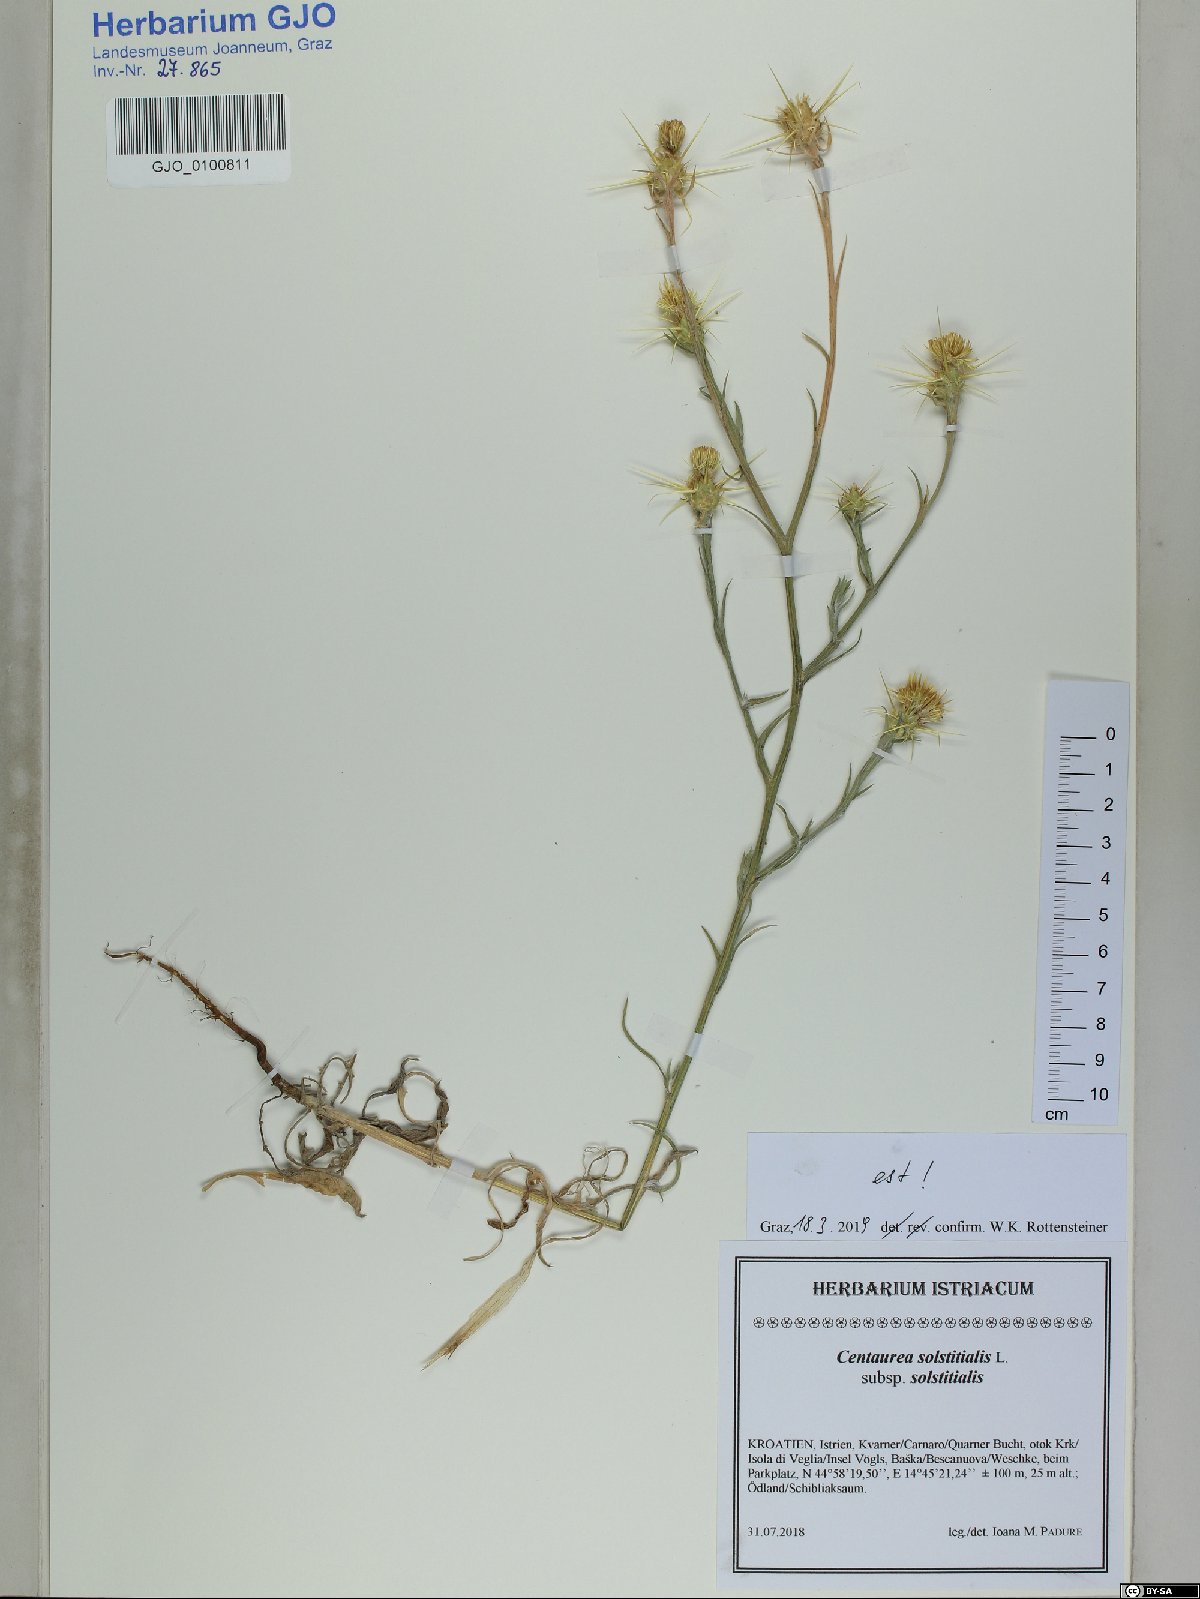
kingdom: Plantae
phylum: Tracheophyta
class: Magnoliopsida
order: Asterales
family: Asteraceae
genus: Centaurea
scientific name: Centaurea solstitialis
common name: Yellow star-thistle
